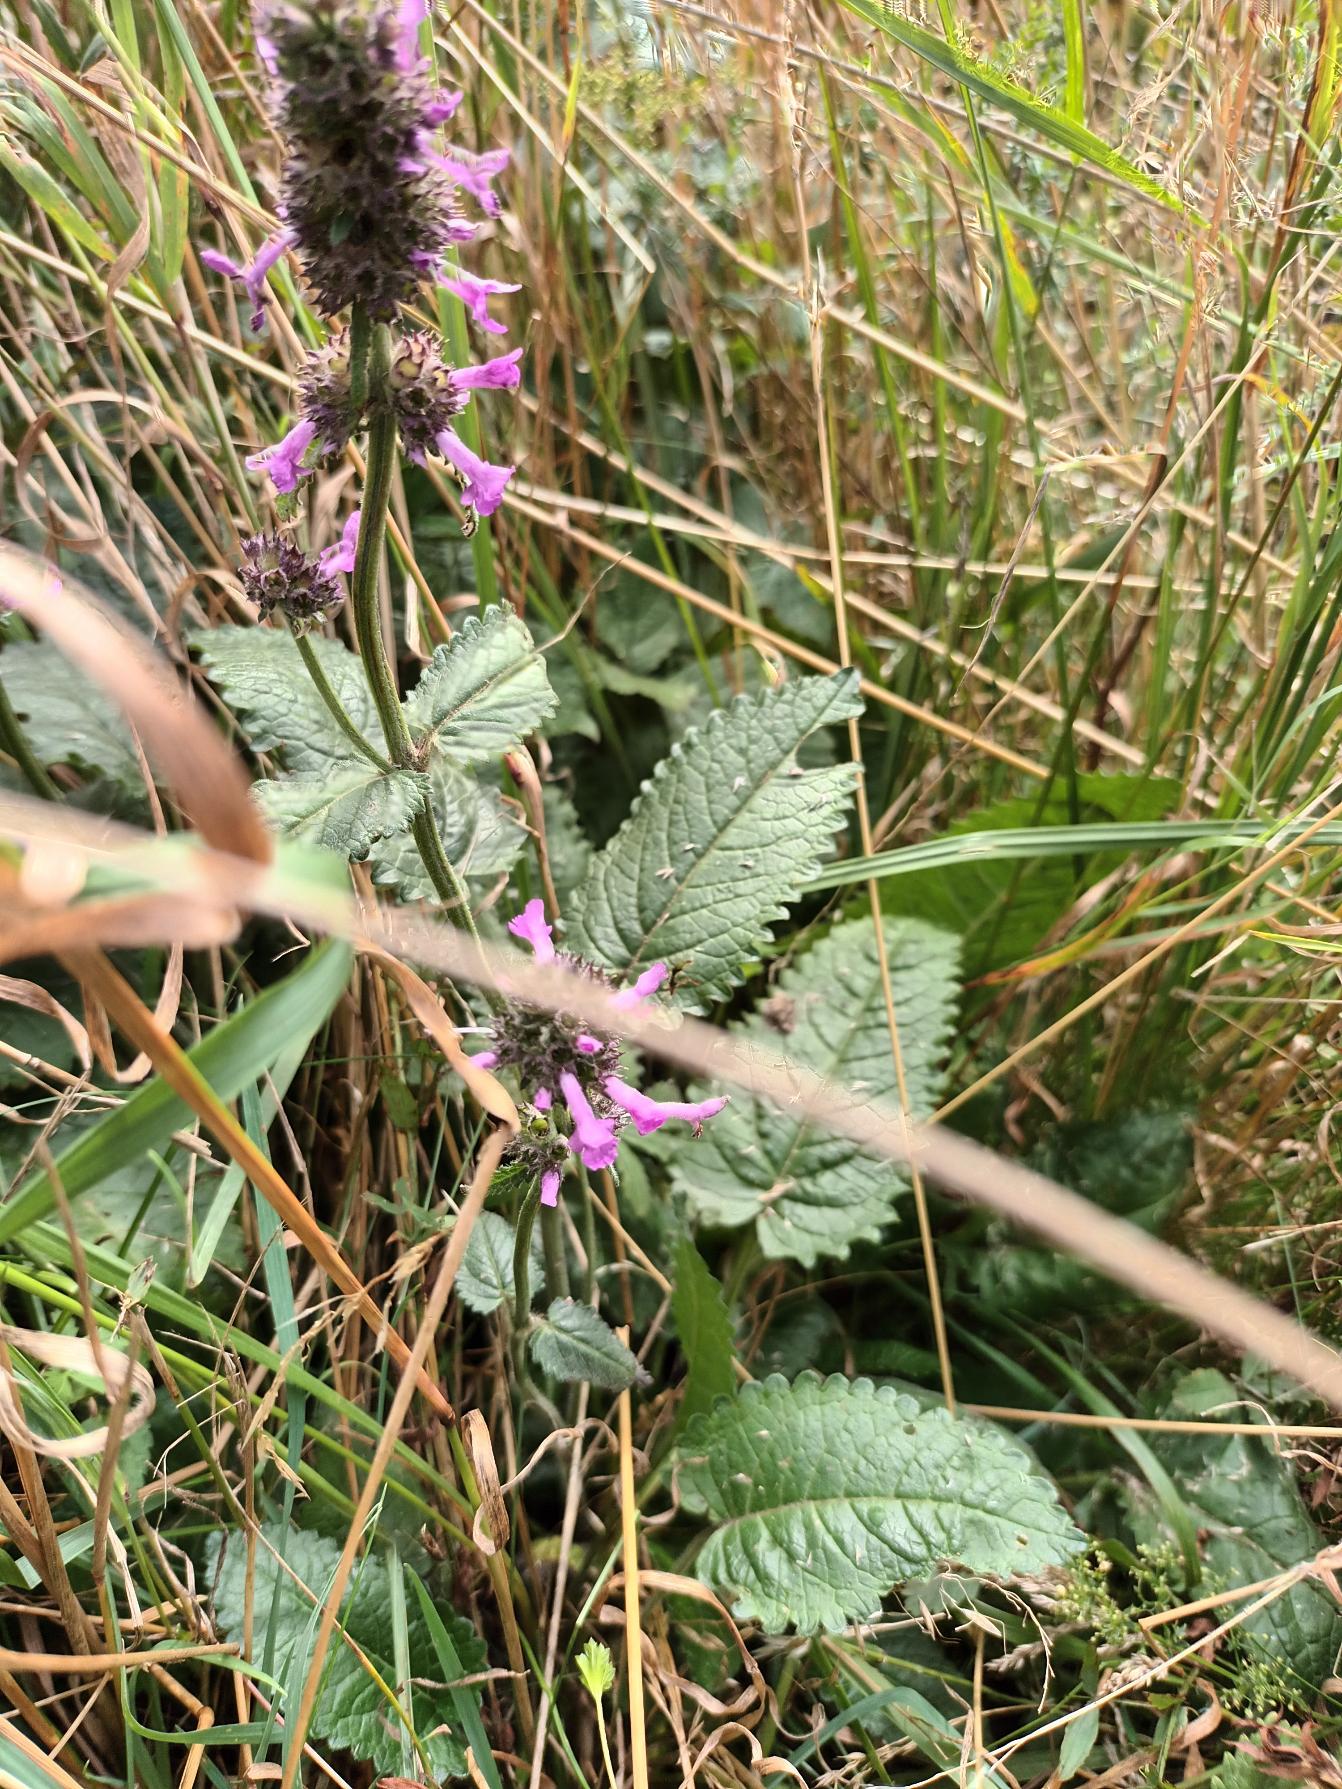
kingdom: Plantae
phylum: Tracheophyta
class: Magnoliopsida
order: Lamiales
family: Lamiaceae
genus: Betonica
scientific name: Betonica officinalis
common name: Betonie
